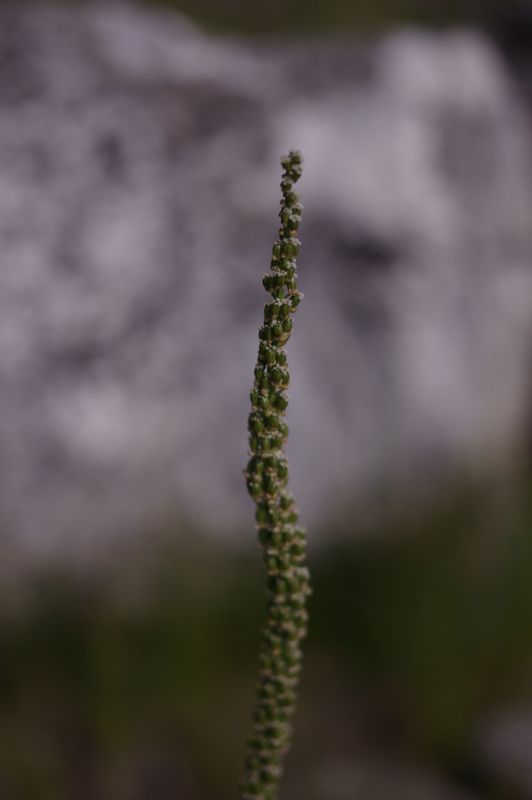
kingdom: Plantae
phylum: Tracheophyta
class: Liliopsida
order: Alismatales
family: Juncaginaceae
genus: Triglochin
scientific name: Triglochin maritima
